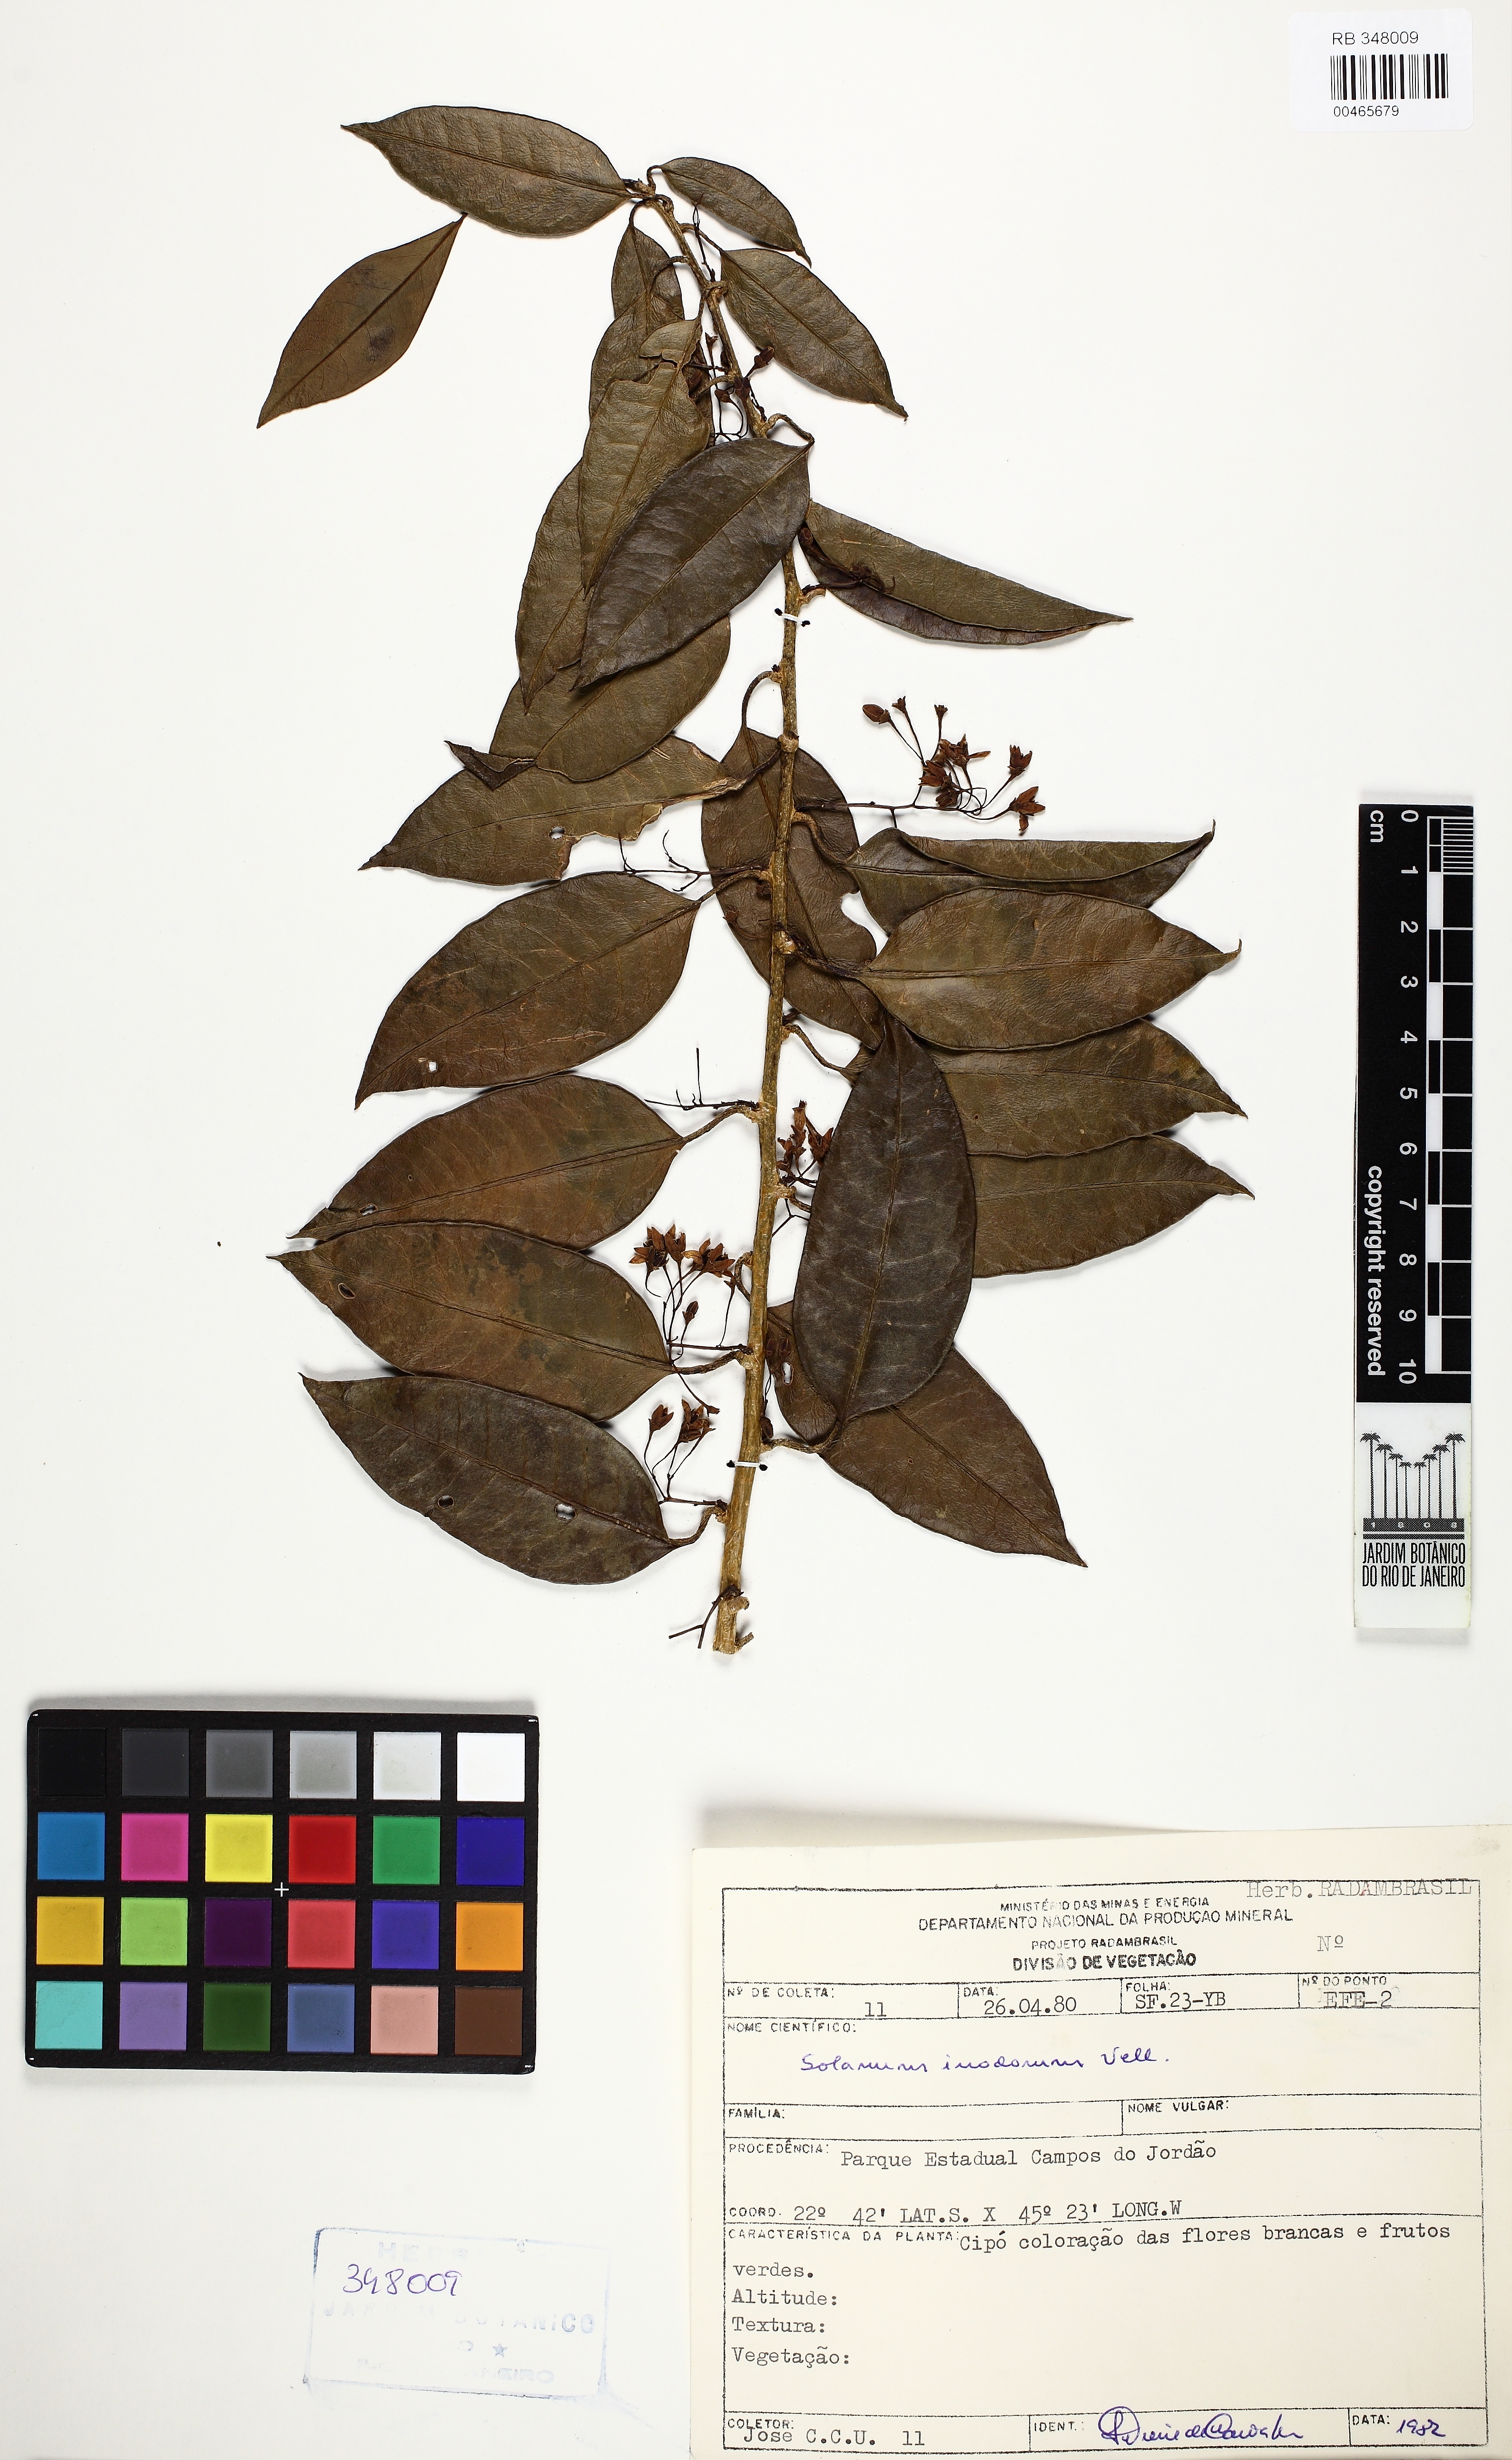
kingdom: Plantae
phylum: Tracheophyta
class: Magnoliopsida
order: Solanales
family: Solanaceae
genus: Solanum
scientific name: Solanum inodorum
